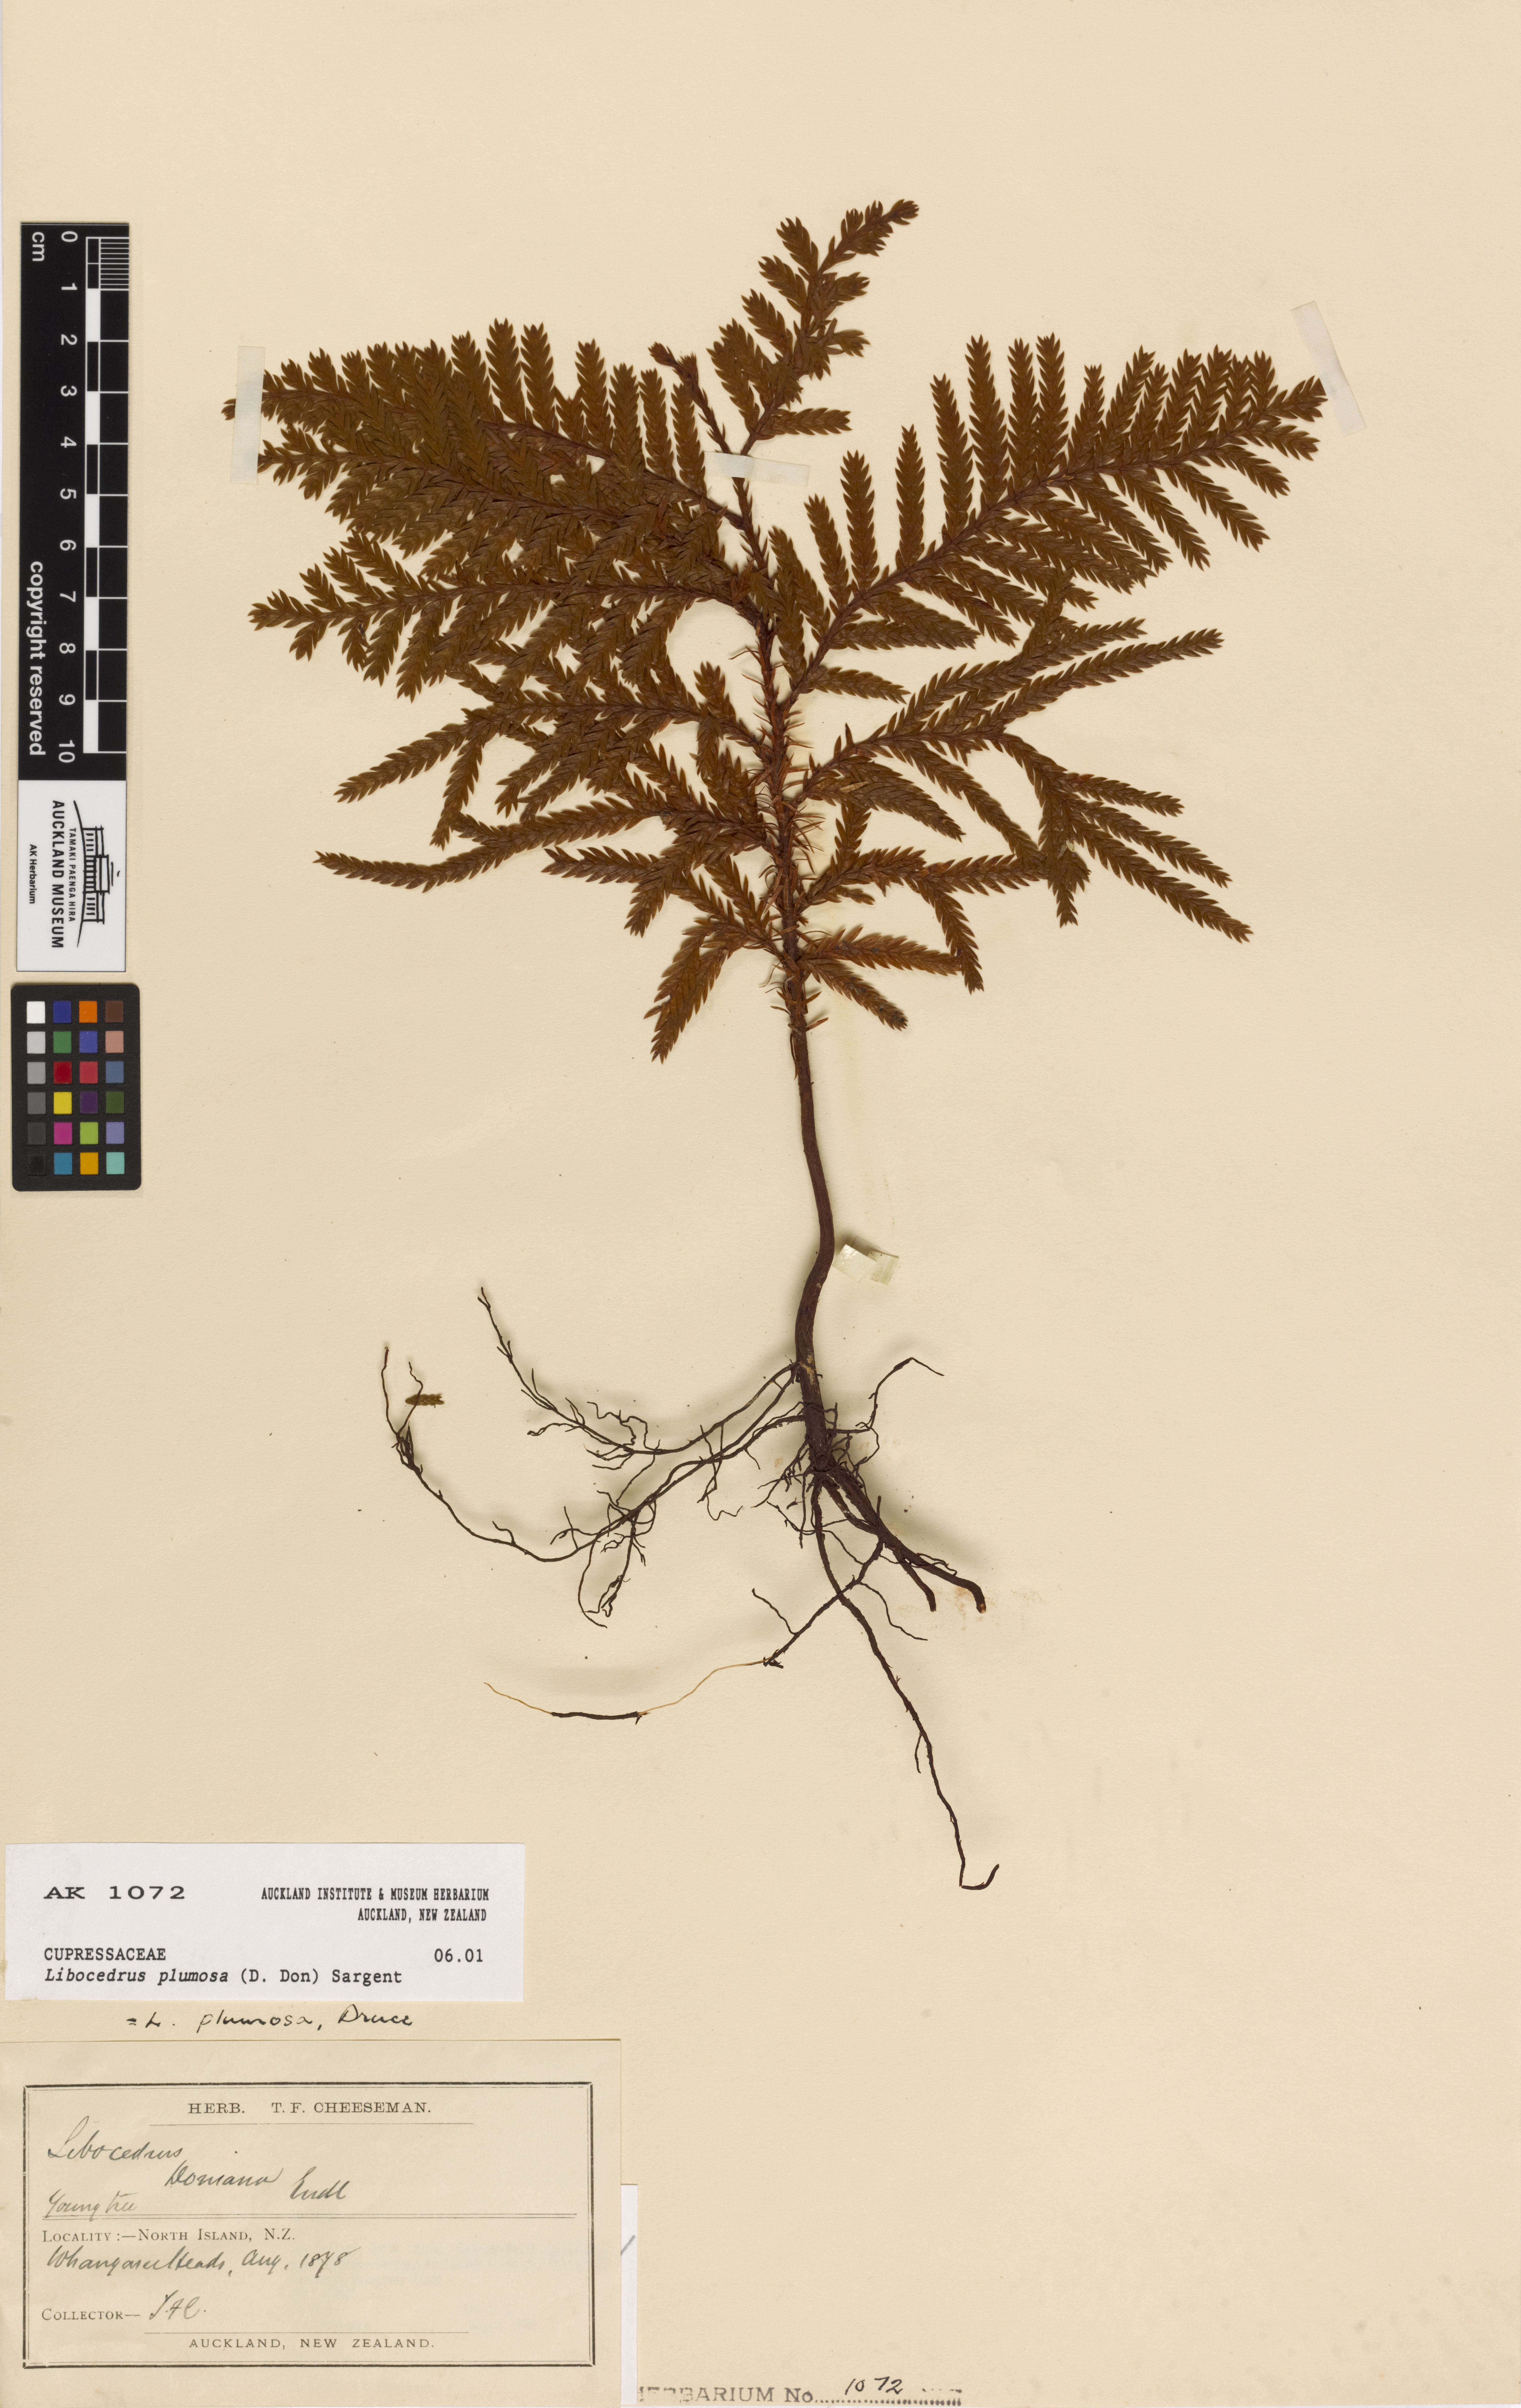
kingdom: Plantae
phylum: Tracheophyta
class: Pinopsida
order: Pinales
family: Cupressaceae
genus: Libocedrus
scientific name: Libocedrus plumosa
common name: New zealand cedar
